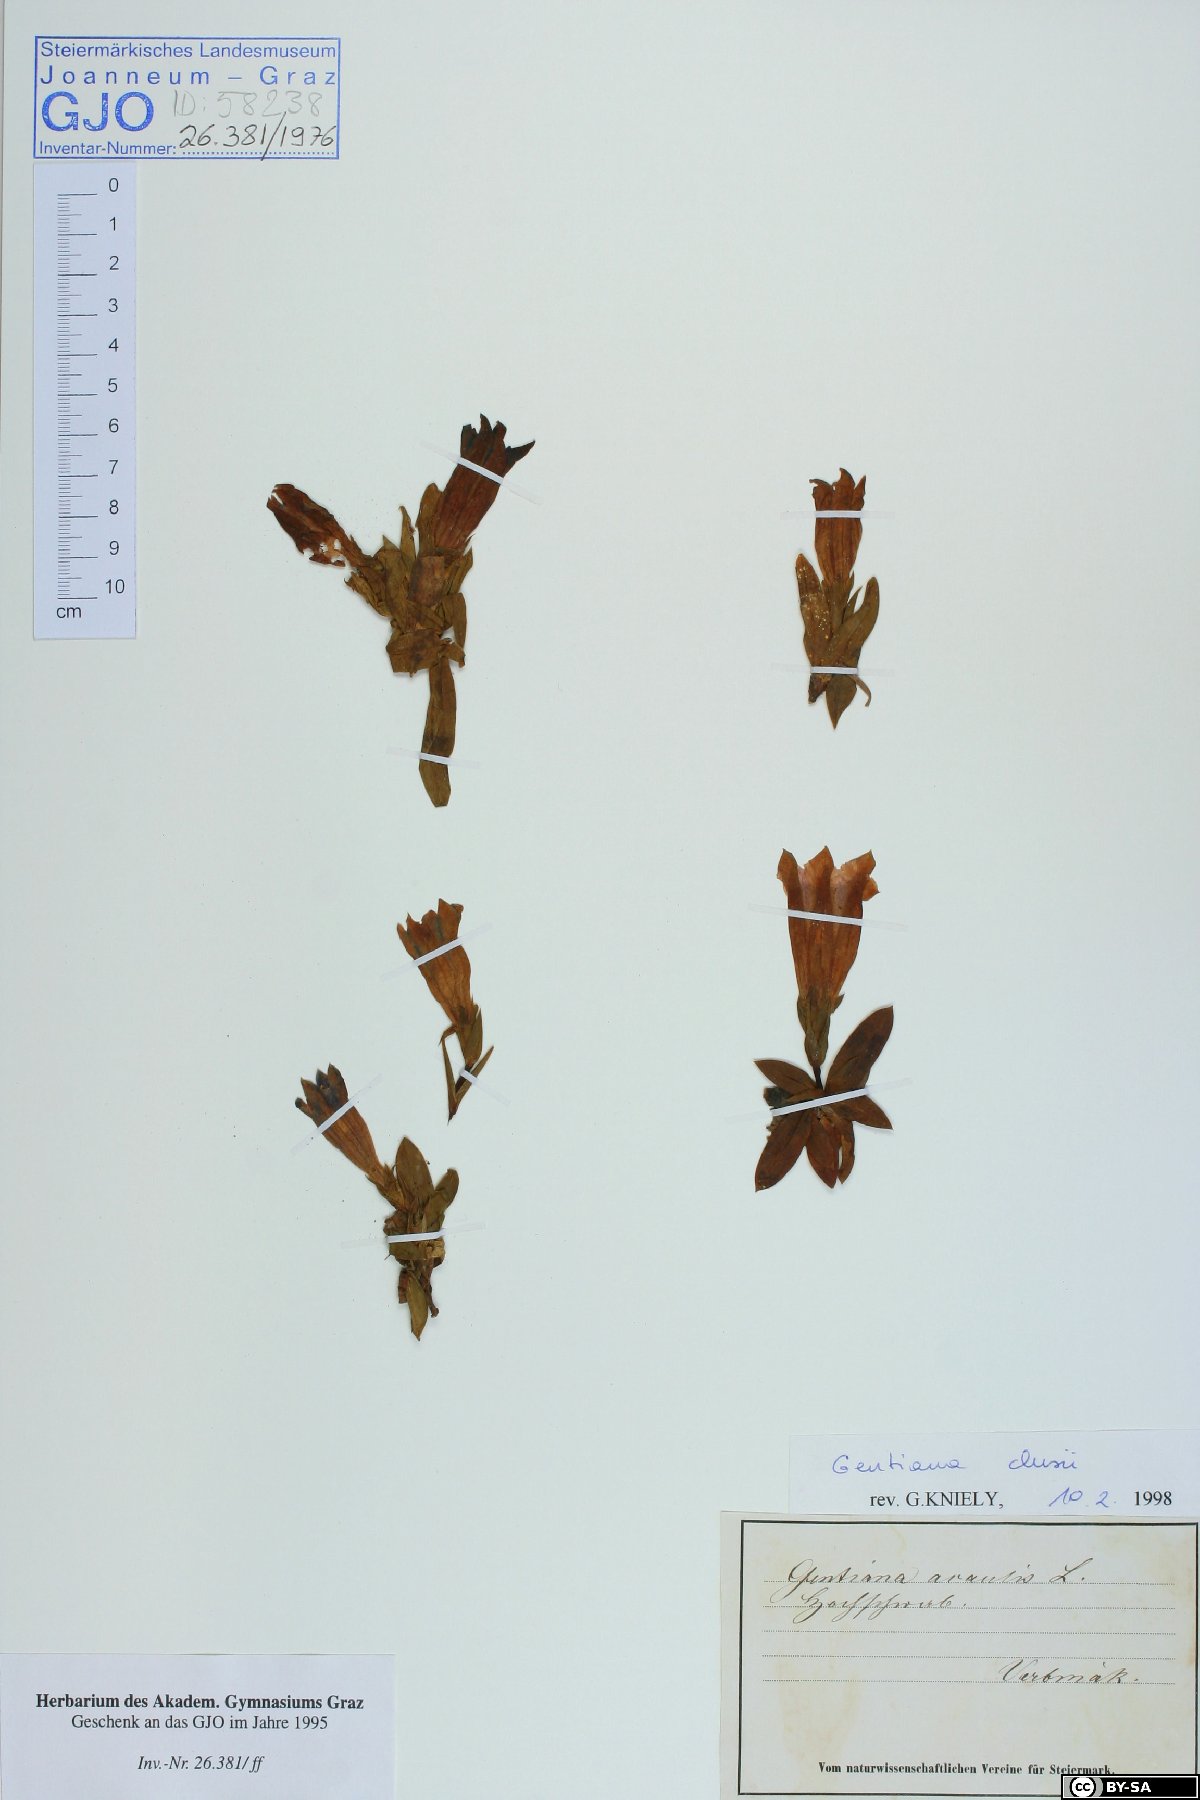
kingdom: Plantae
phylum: Tracheophyta
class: Magnoliopsida
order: Gentianales
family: Gentianaceae
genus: Gentiana
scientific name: Gentiana clusii
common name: Trumpet gentian
